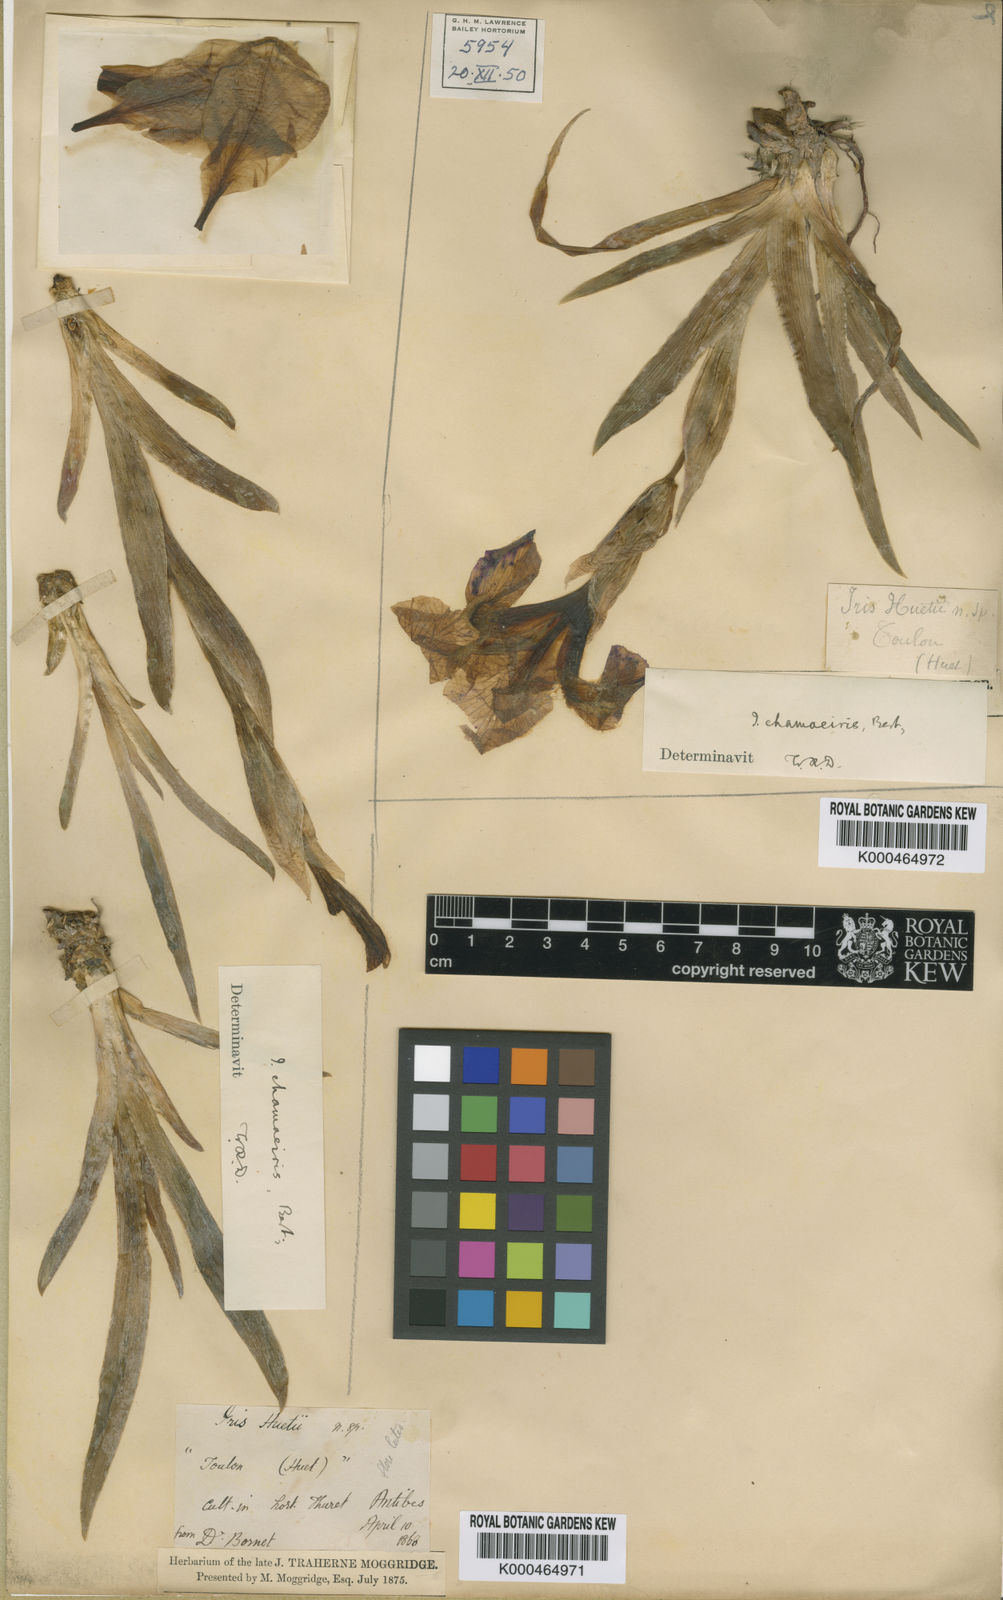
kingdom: Plantae
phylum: Tracheophyta
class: Liliopsida
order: Asparagales
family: Iridaceae
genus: Iris
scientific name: Iris lutescens
